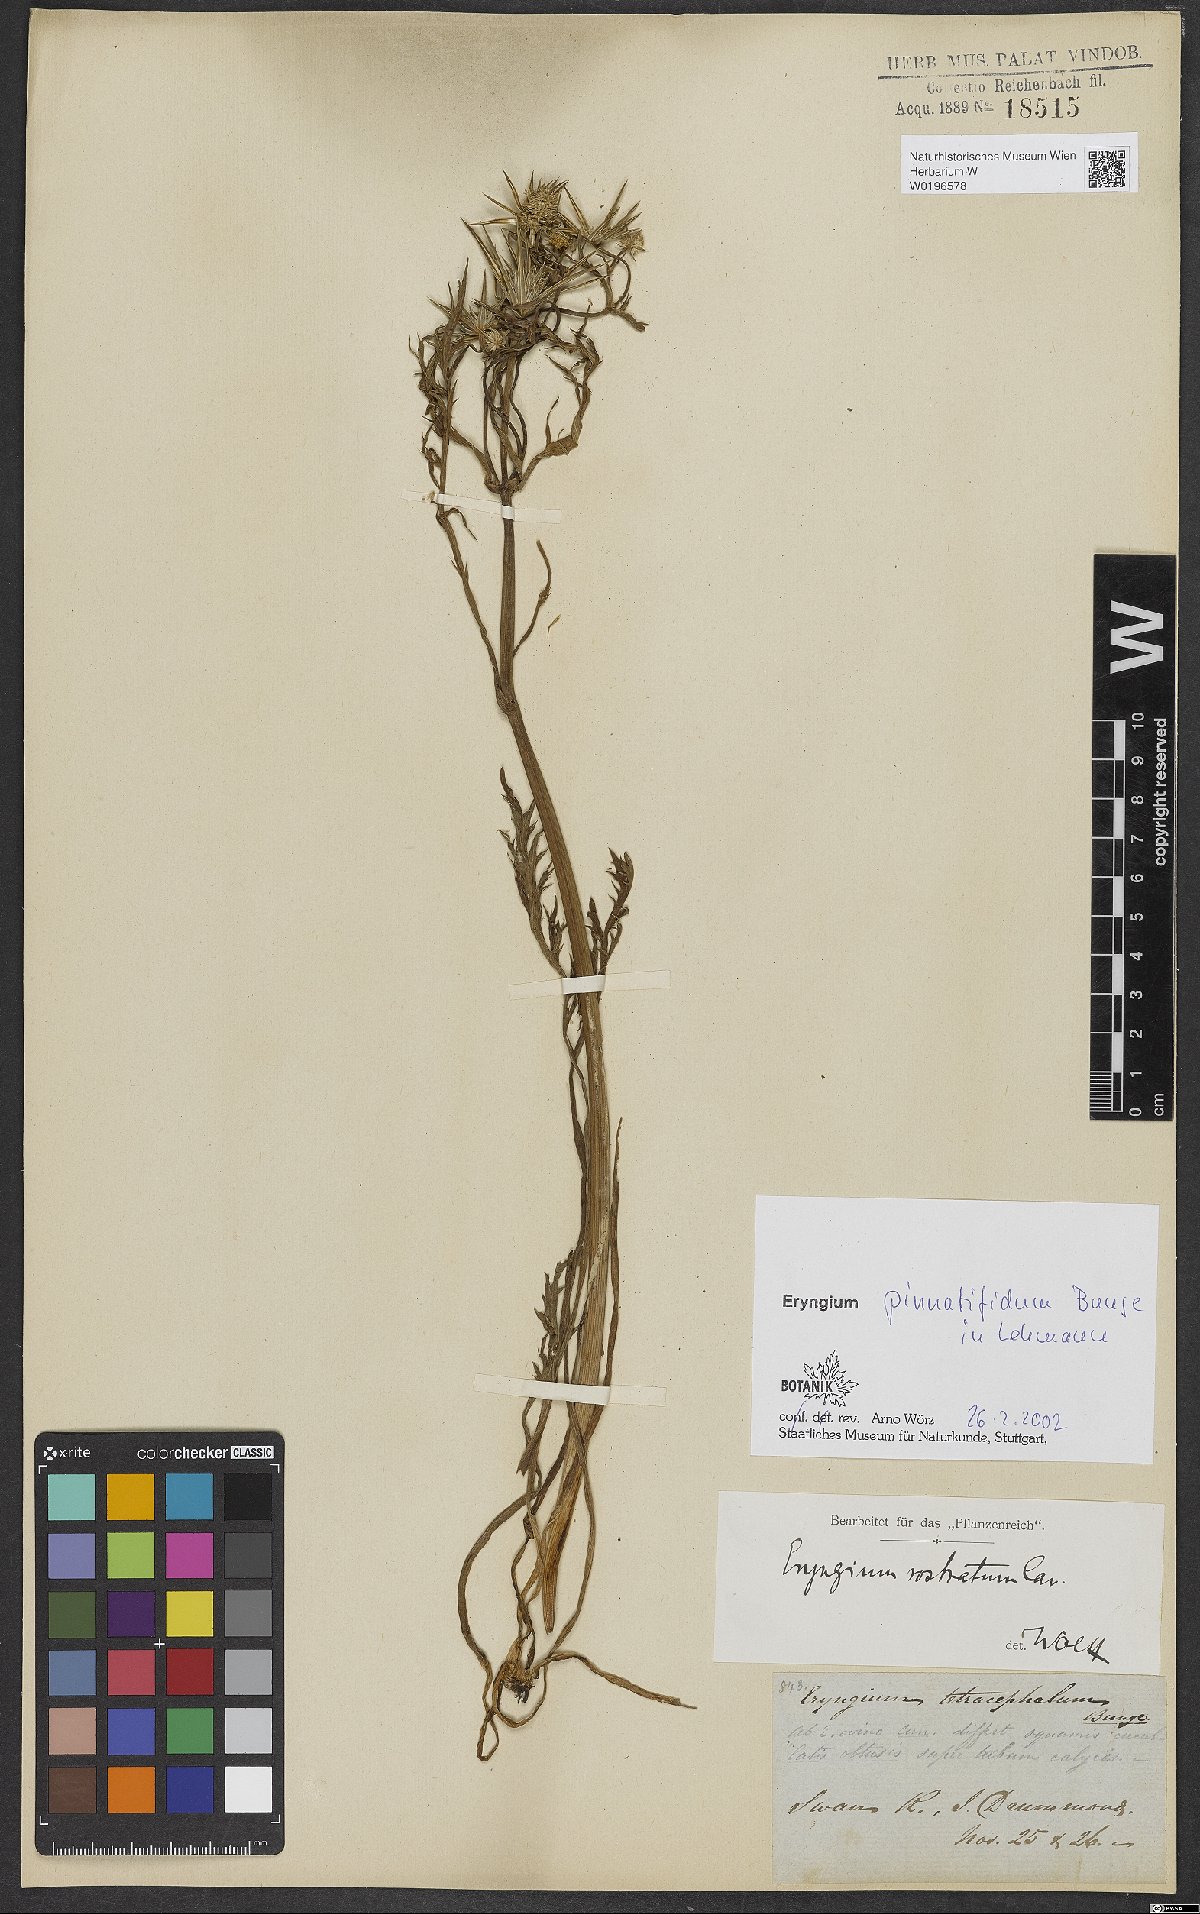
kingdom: Plantae
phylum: Tracheophyta
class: Magnoliopsida
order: Apiales
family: Apiaceae
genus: Eryngium
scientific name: Eryngium pinnatifidum
